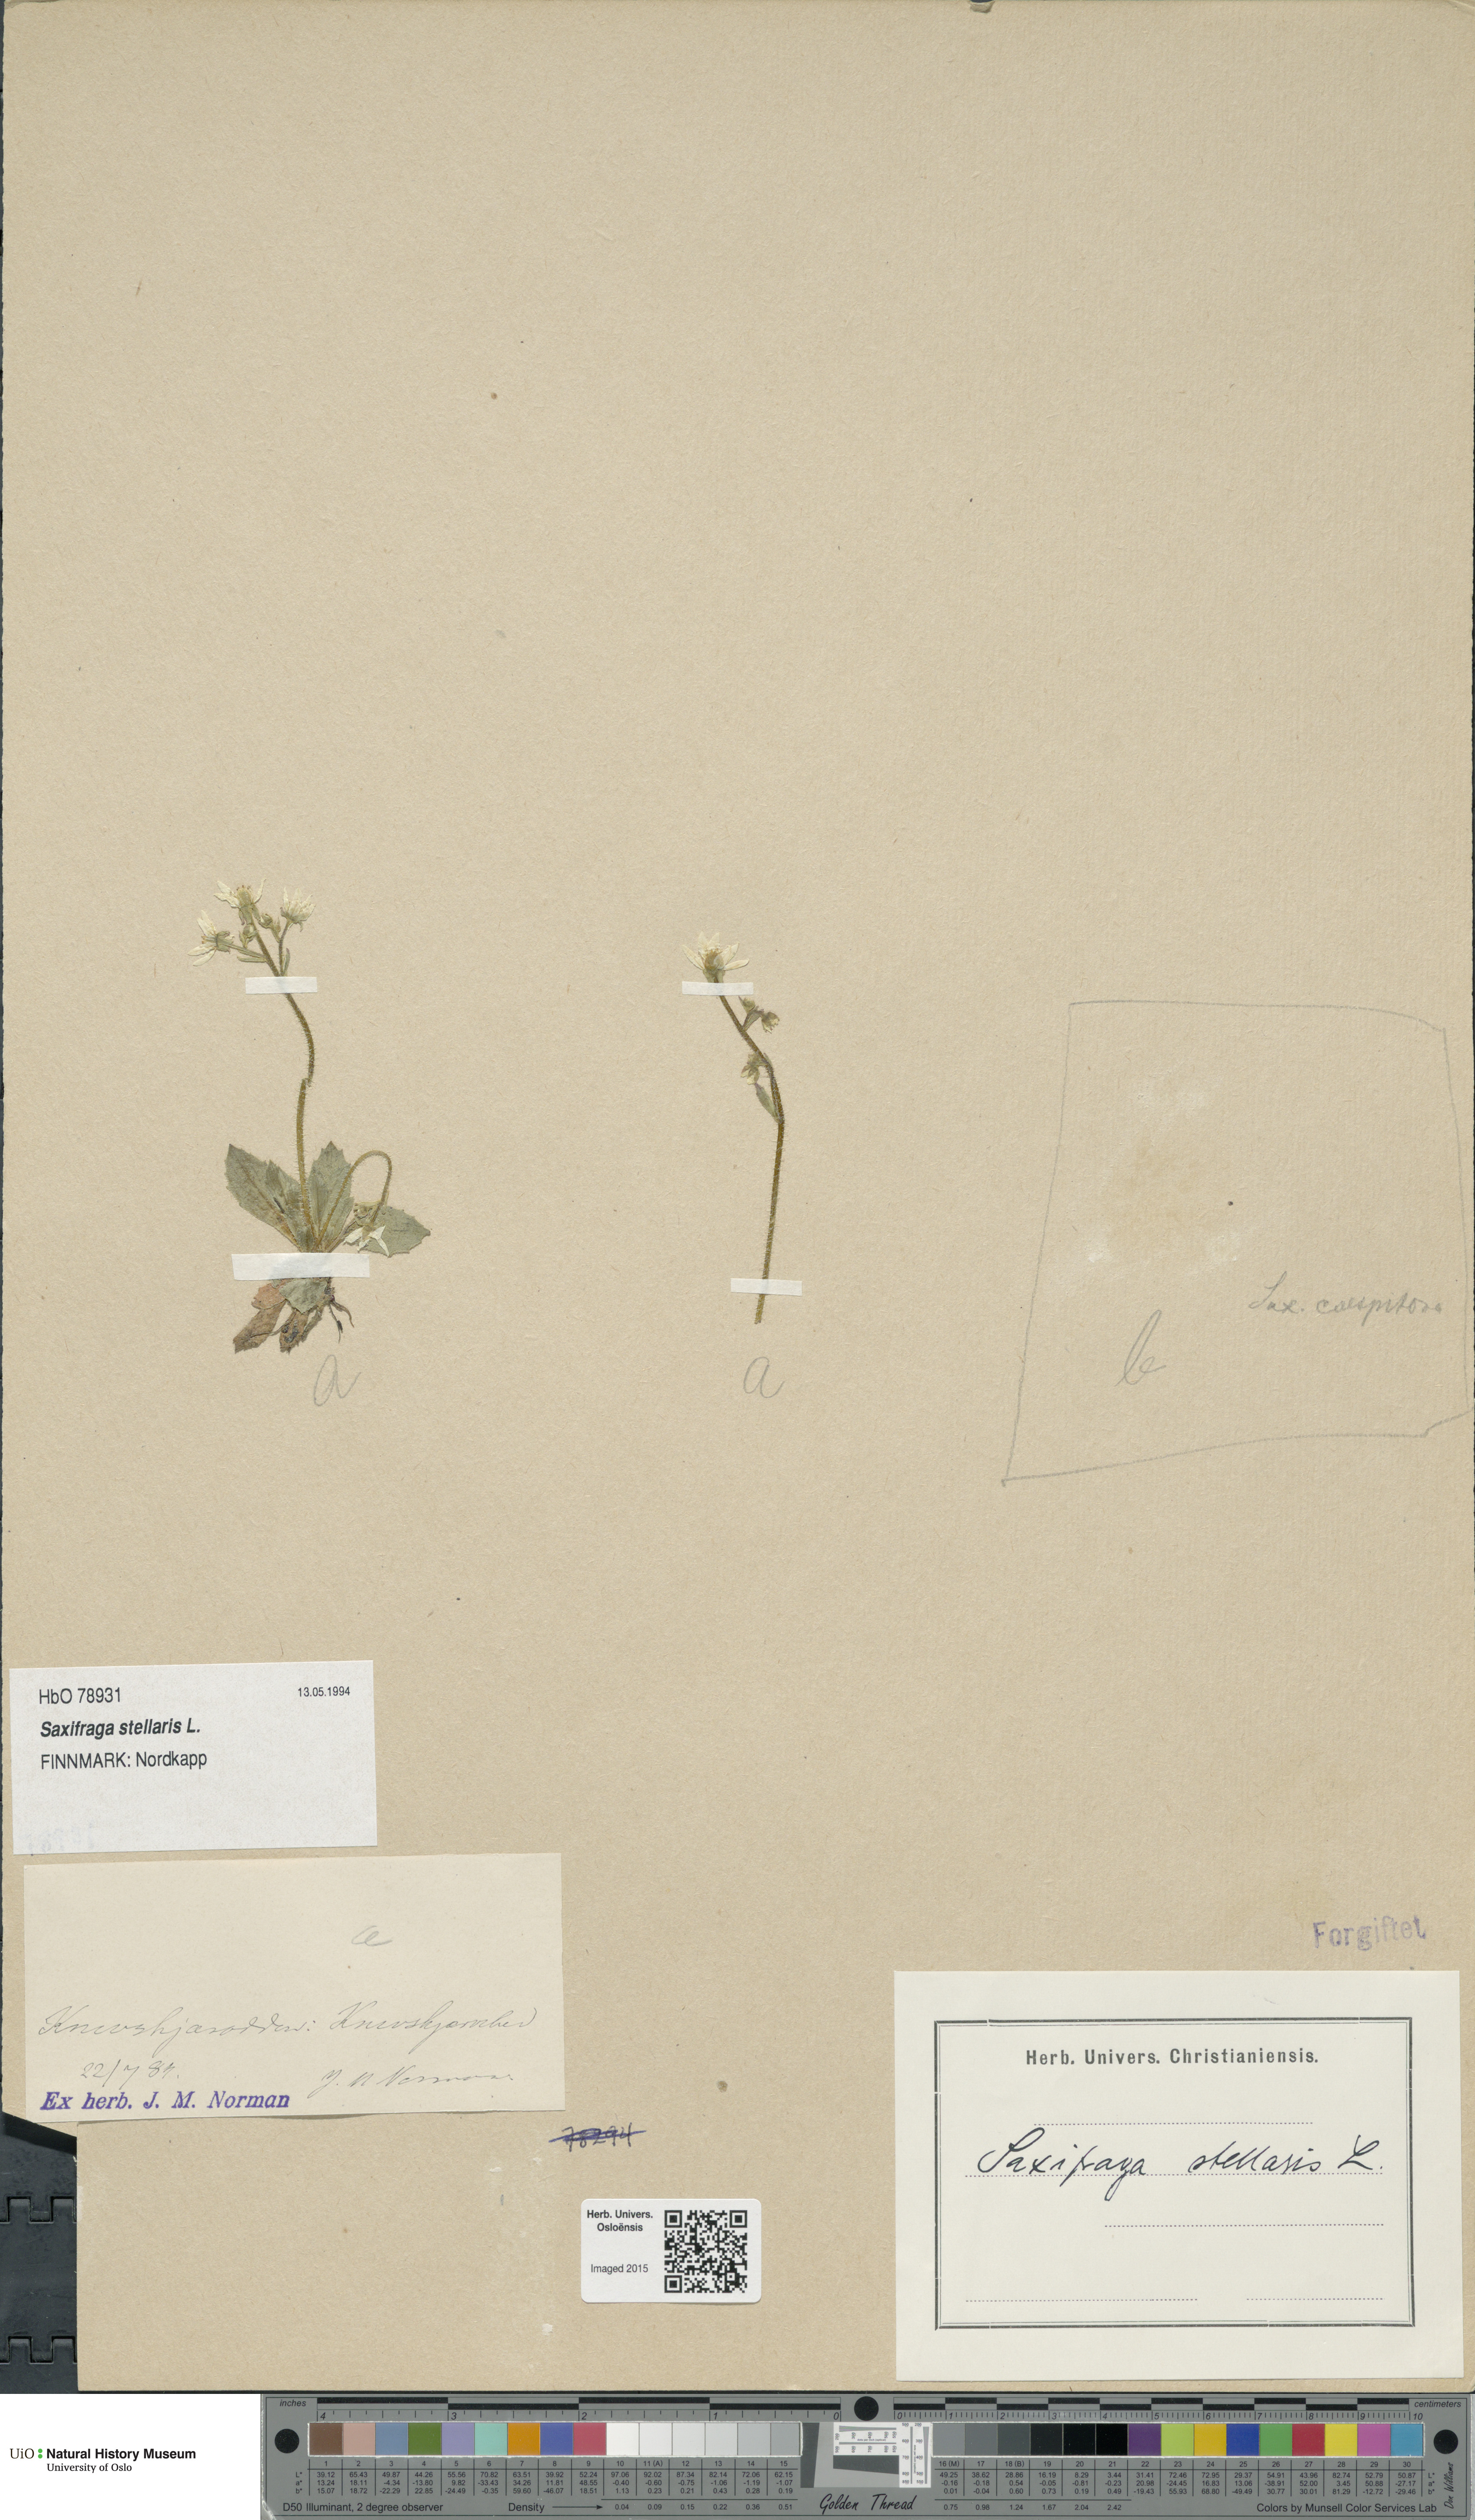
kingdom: Plantae
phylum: Tracheophyta
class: Magnoliopsida
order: Saxifragales
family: Saxifragaceae
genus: Micranthes
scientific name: Micranthes stellaris
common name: Starry saxifrage
